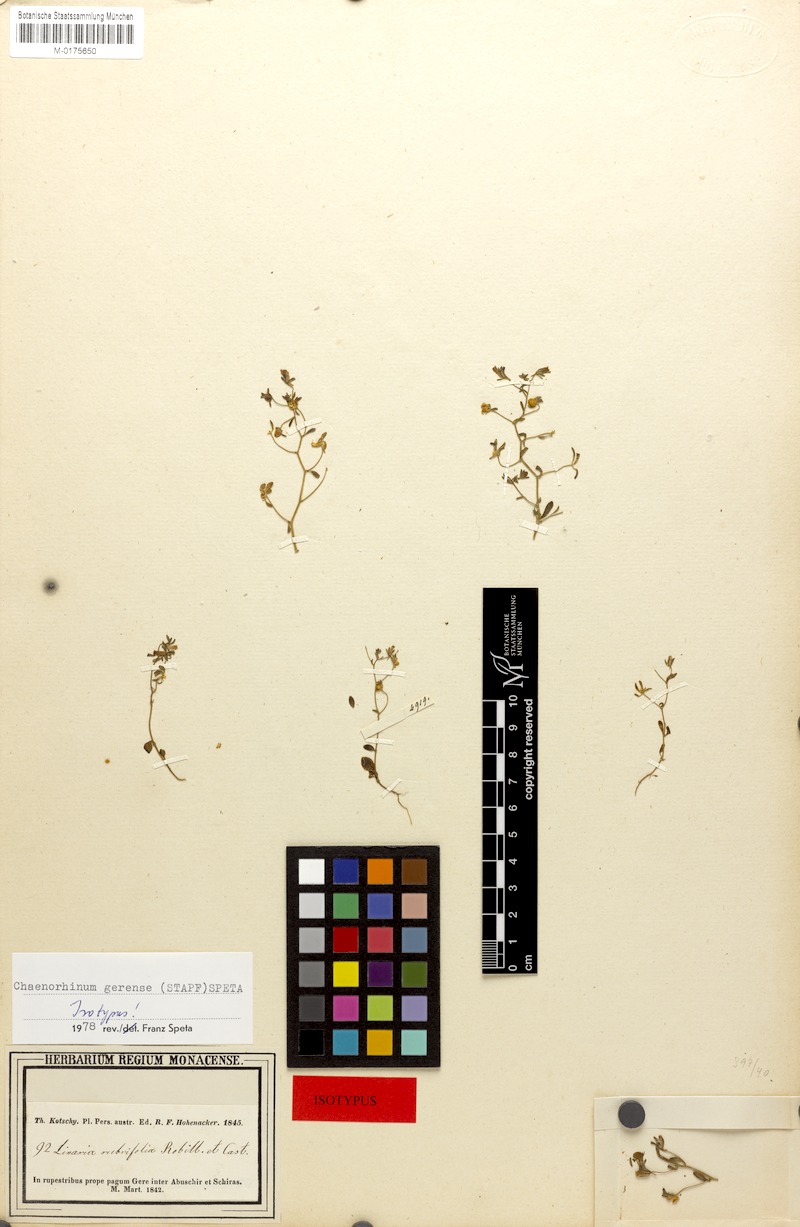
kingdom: Plantae
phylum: Tracheophyta
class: Magnoliopsida
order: Lamiales
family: Plantaginaceae
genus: Chaenorhinum
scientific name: Chaenorhinum rubrifolium
